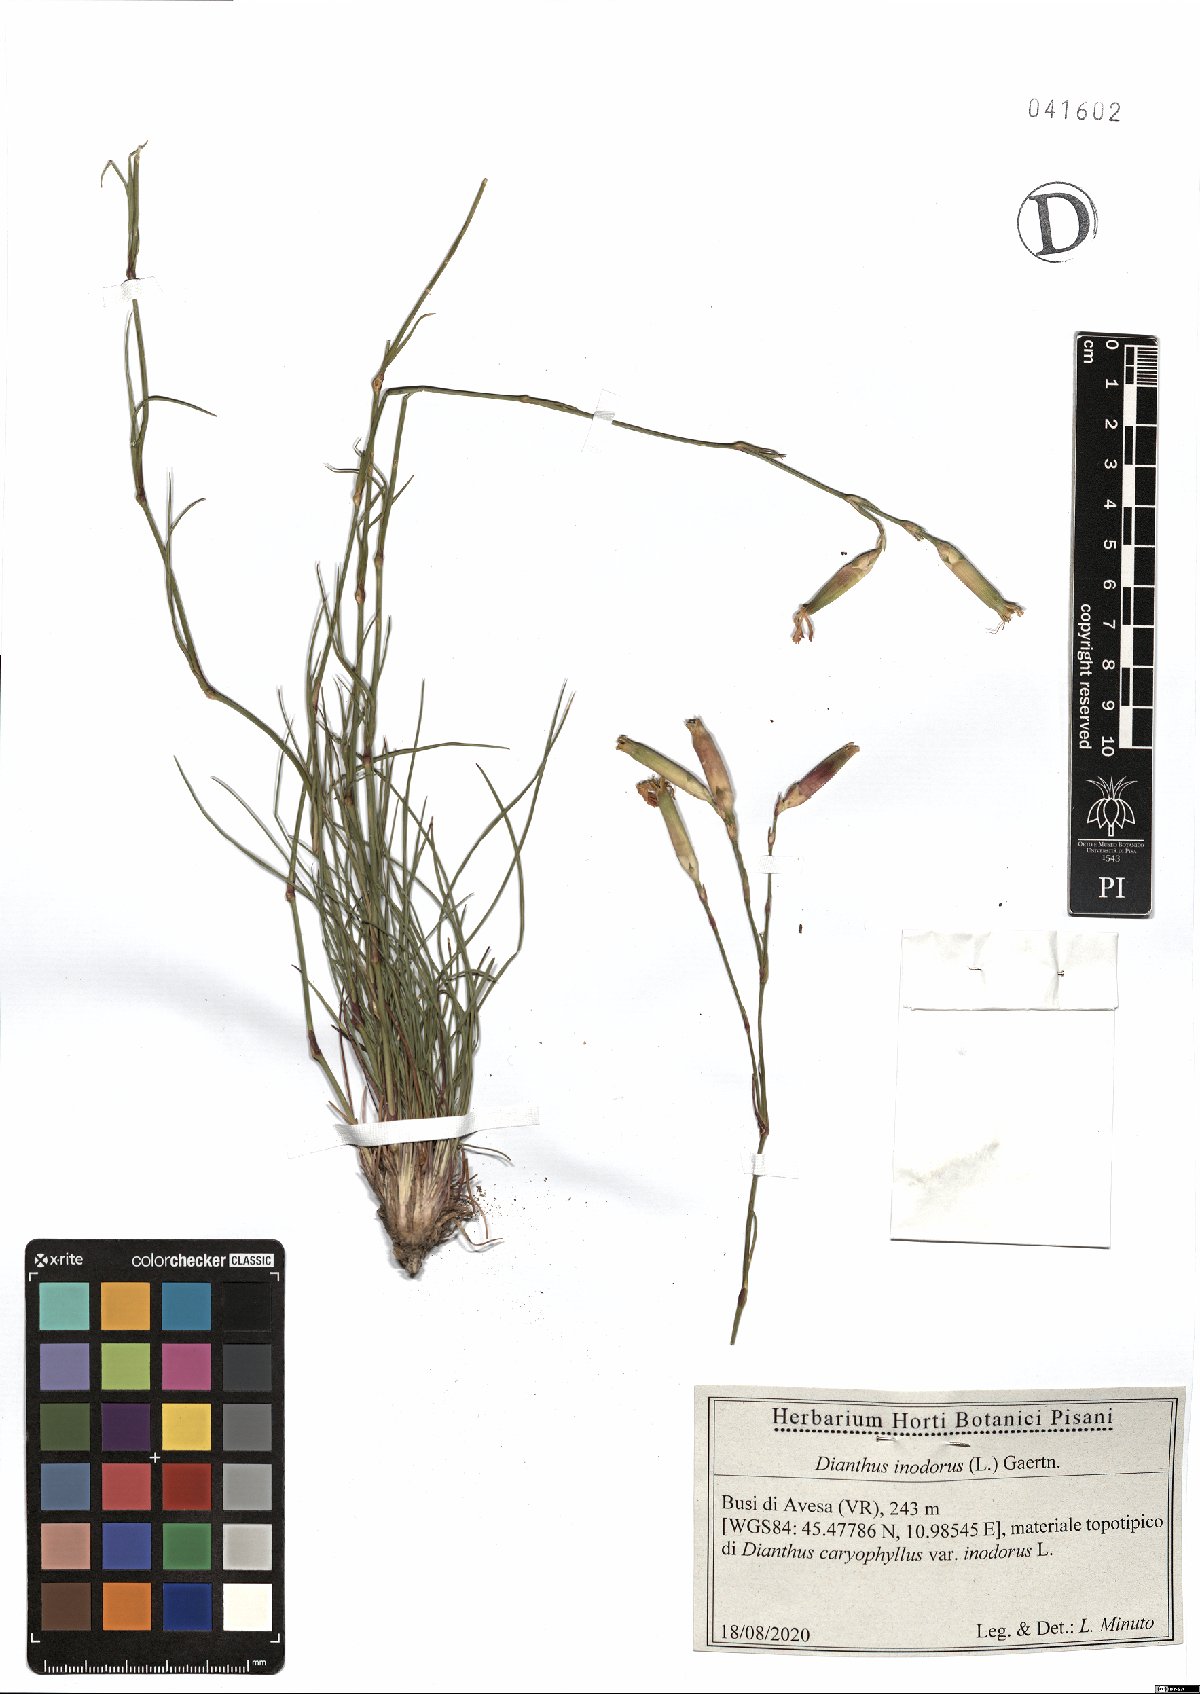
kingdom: Plantae
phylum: Tracheophyta
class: Magnoliopsida
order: Caryophyllales
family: Caryophyllaceae
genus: Dianthus
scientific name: Dianthus sylvestris
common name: Wood pink
